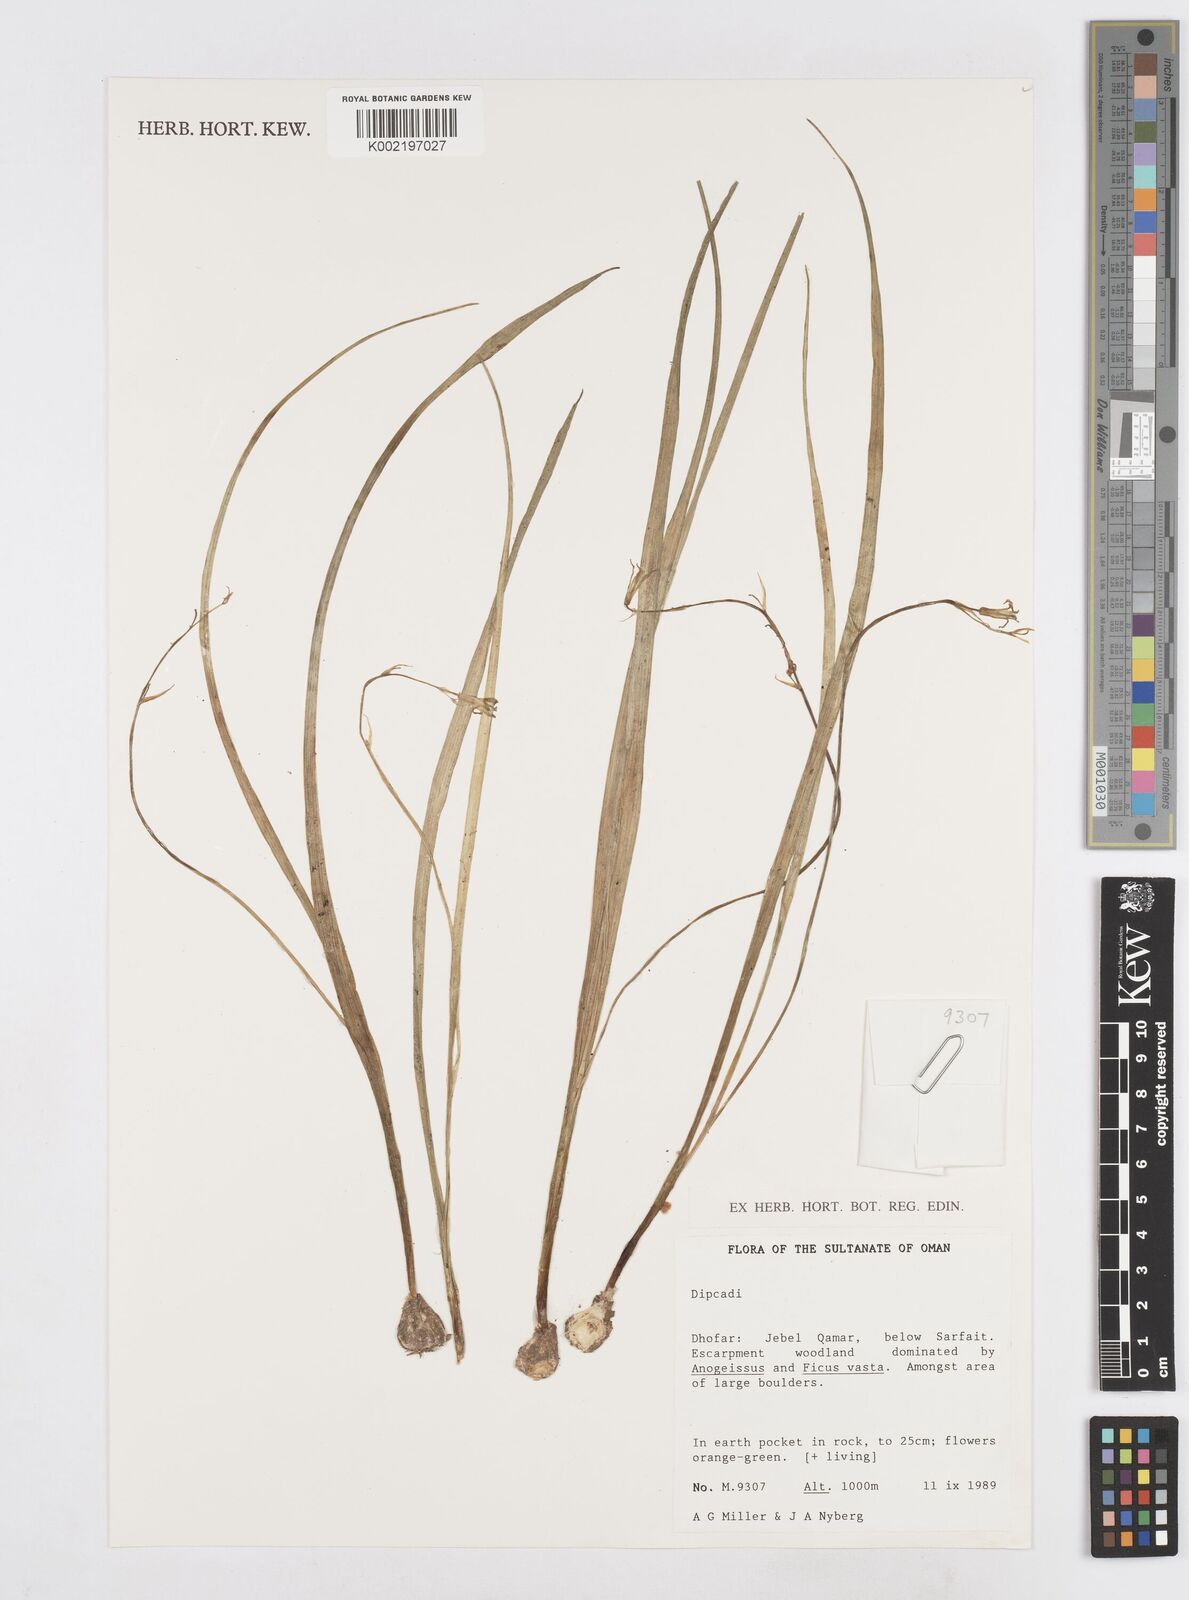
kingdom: Plantae
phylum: Tracheophyta
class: Liliopsida
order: Asparagales
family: Asparagaceae
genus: Dipcadi
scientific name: Dipcadi
